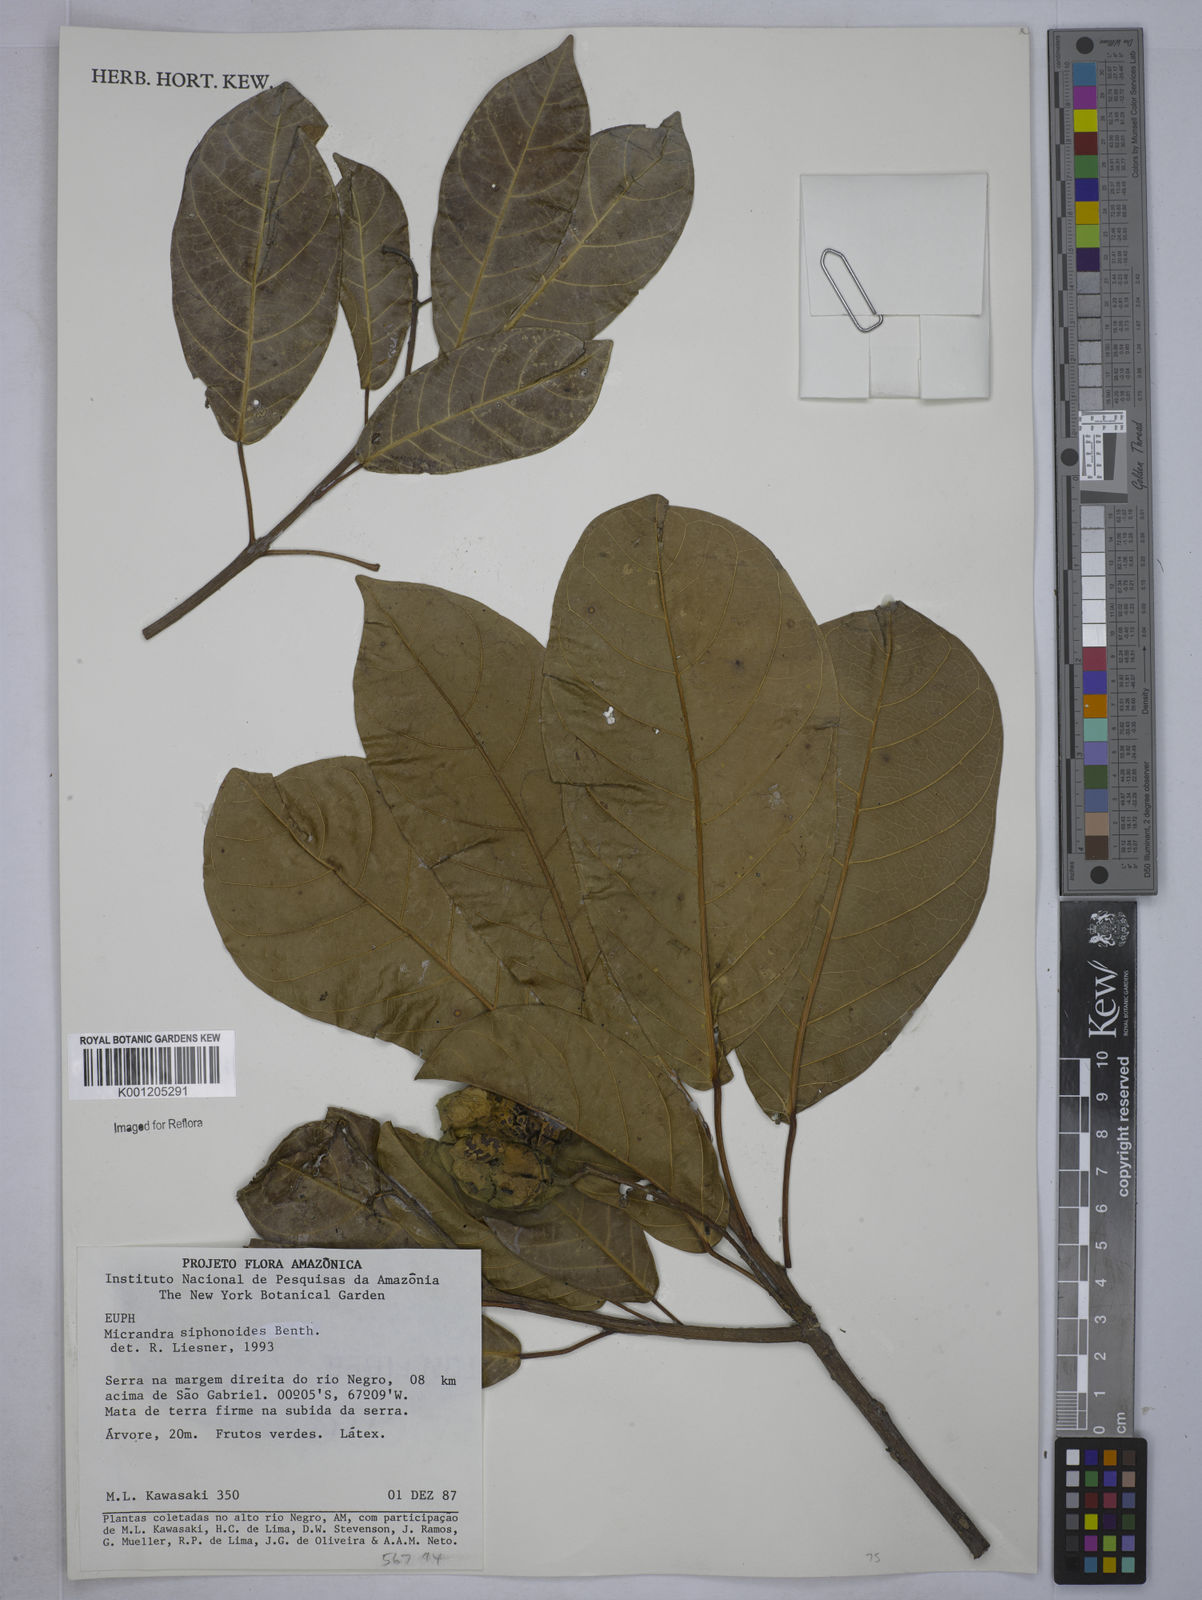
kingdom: Plantae
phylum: Tracheophyta
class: Magnoliopsida
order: Malpighiales
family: Euphorbiaceae
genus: Micrandra
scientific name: Micrandra siphonioides
